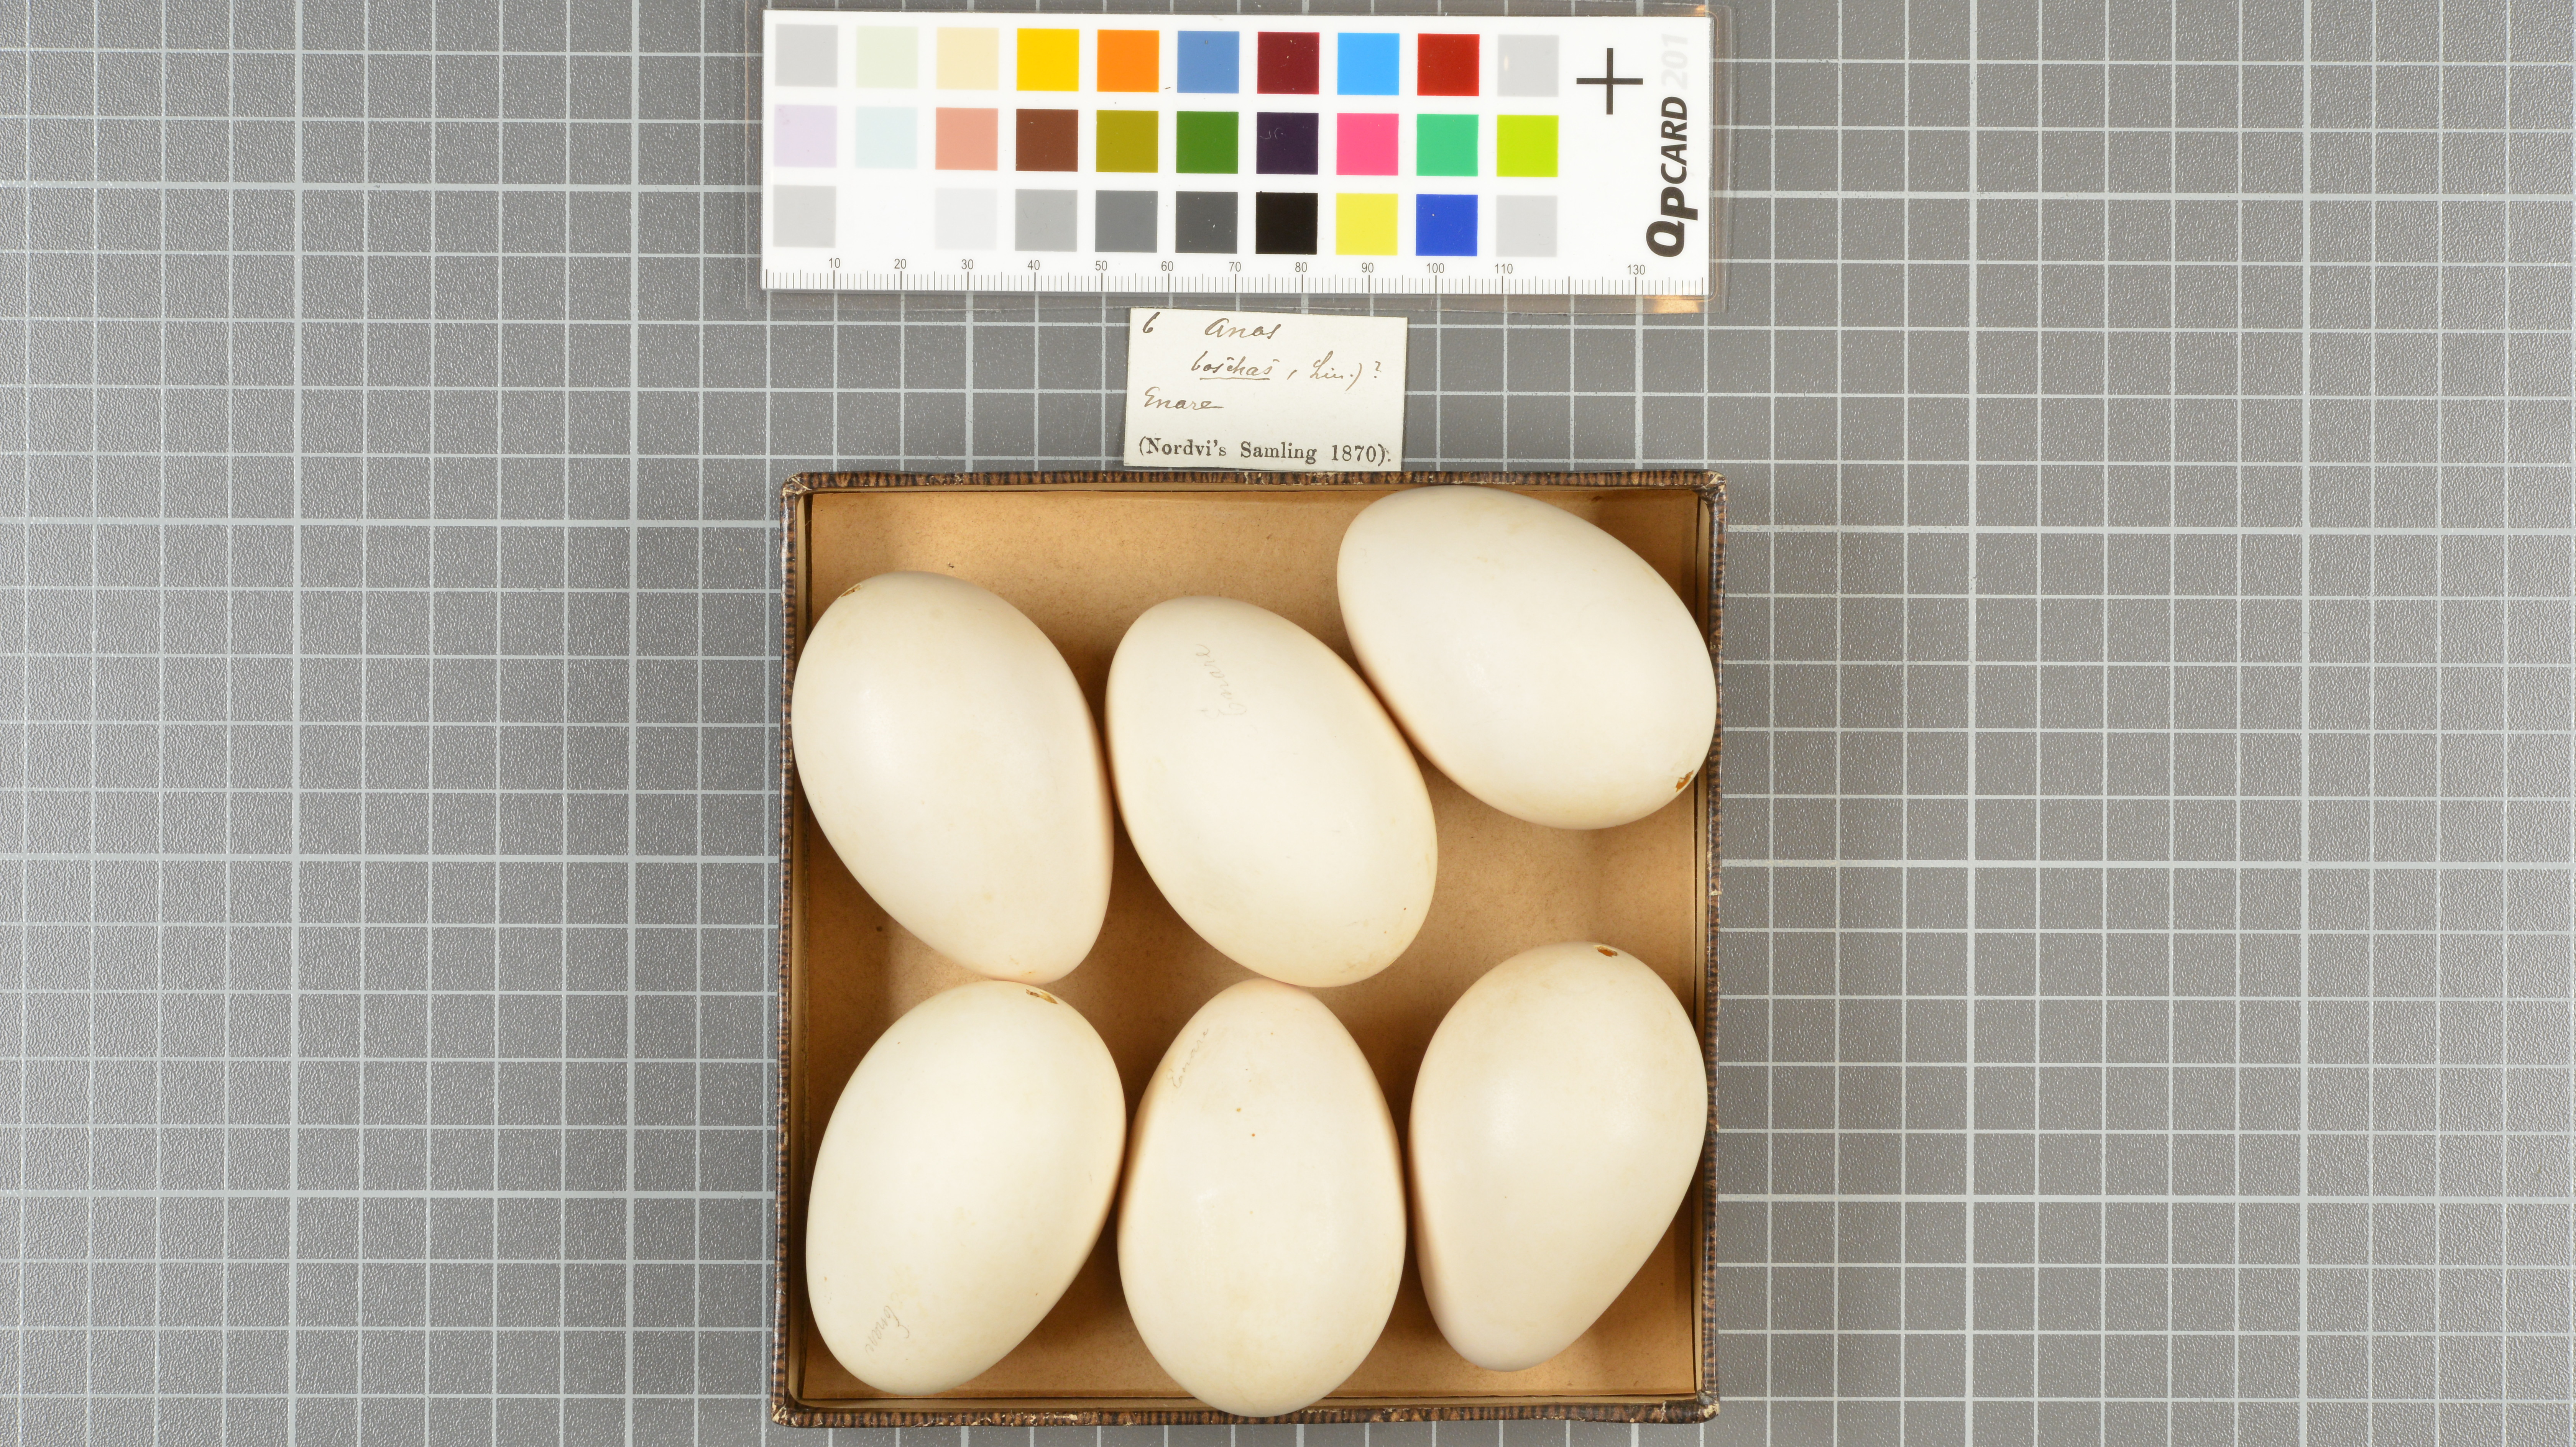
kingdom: Animalia
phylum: Chordata
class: Aves
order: Anseriformes
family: Anatidae
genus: Anas
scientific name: Anas platyrhynchos
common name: Mallard
